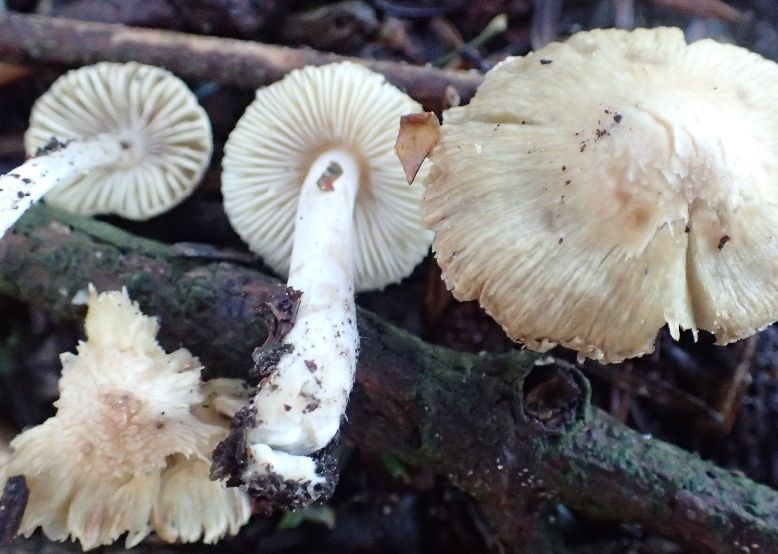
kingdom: Fungi
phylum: Basidiomycota
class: Agaricomycetes
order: Agaricales
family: Inocybaceae
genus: Inocybe
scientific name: Inocybe
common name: trævlhat
